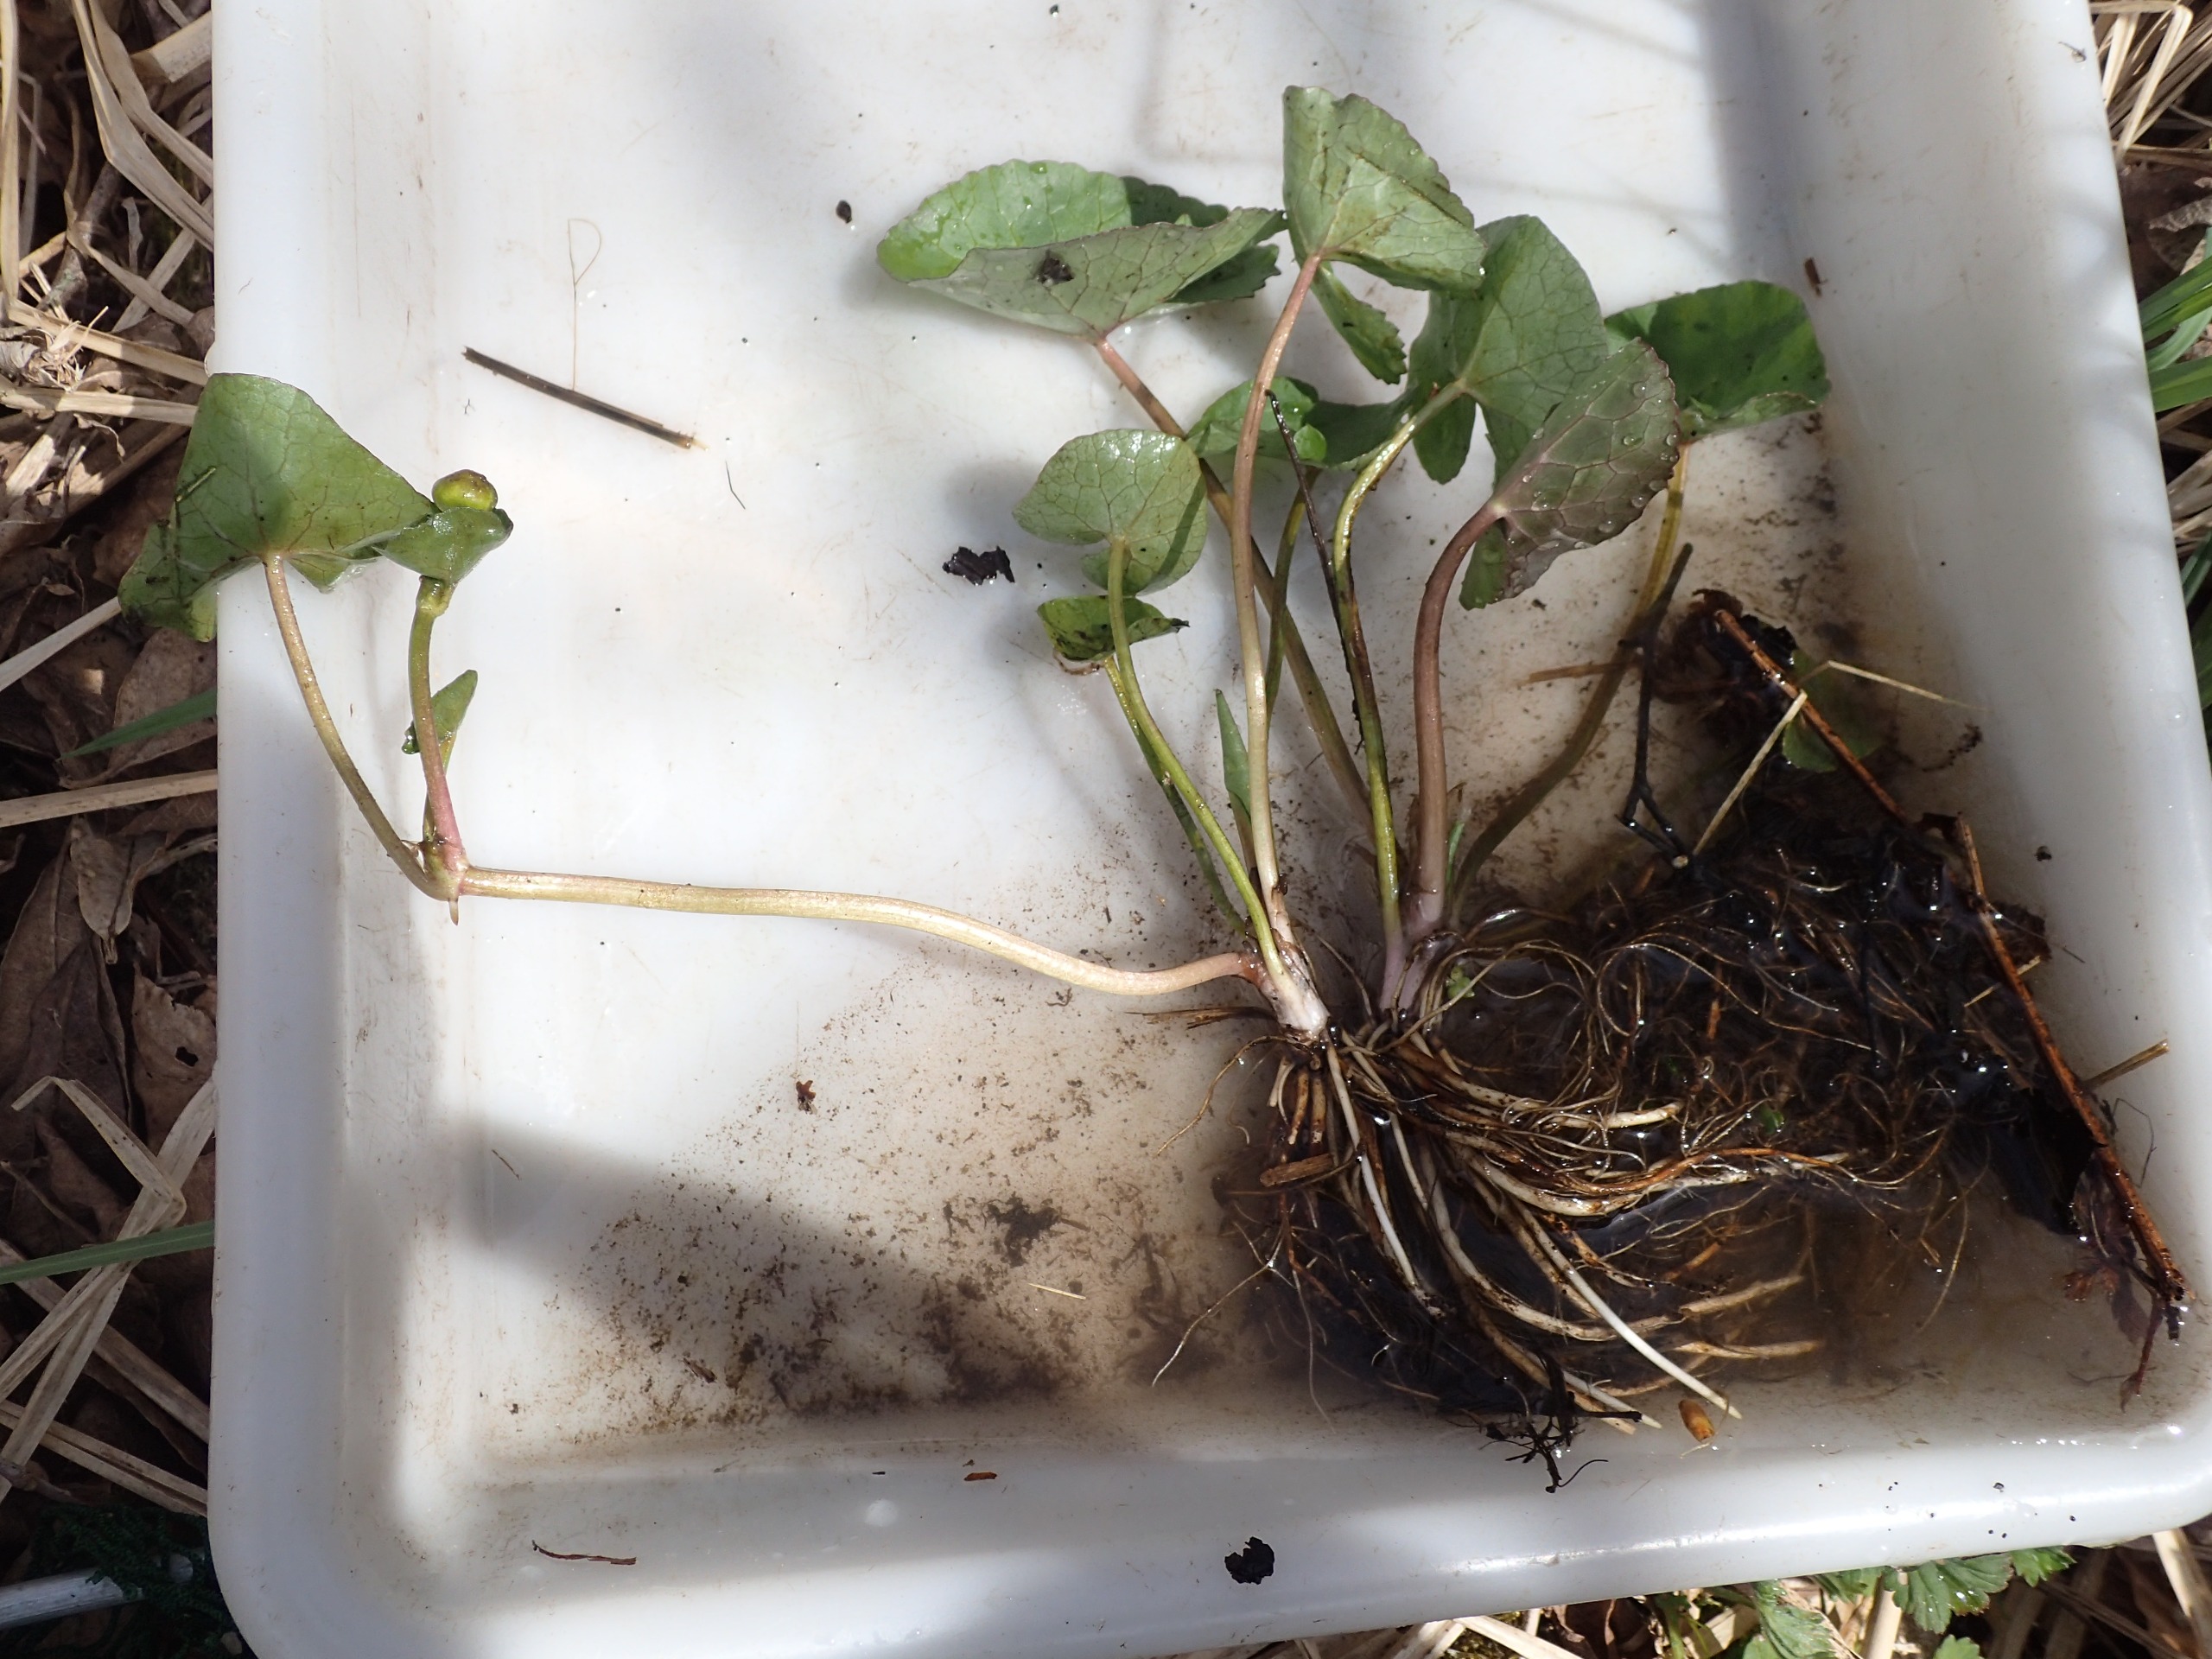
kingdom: Plantae
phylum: Tracheophyta
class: Magnoliopsida
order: Ranunculales
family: Ranunculaceae
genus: Caltha
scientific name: Caltha palustris
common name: Krybende kabbeleje
